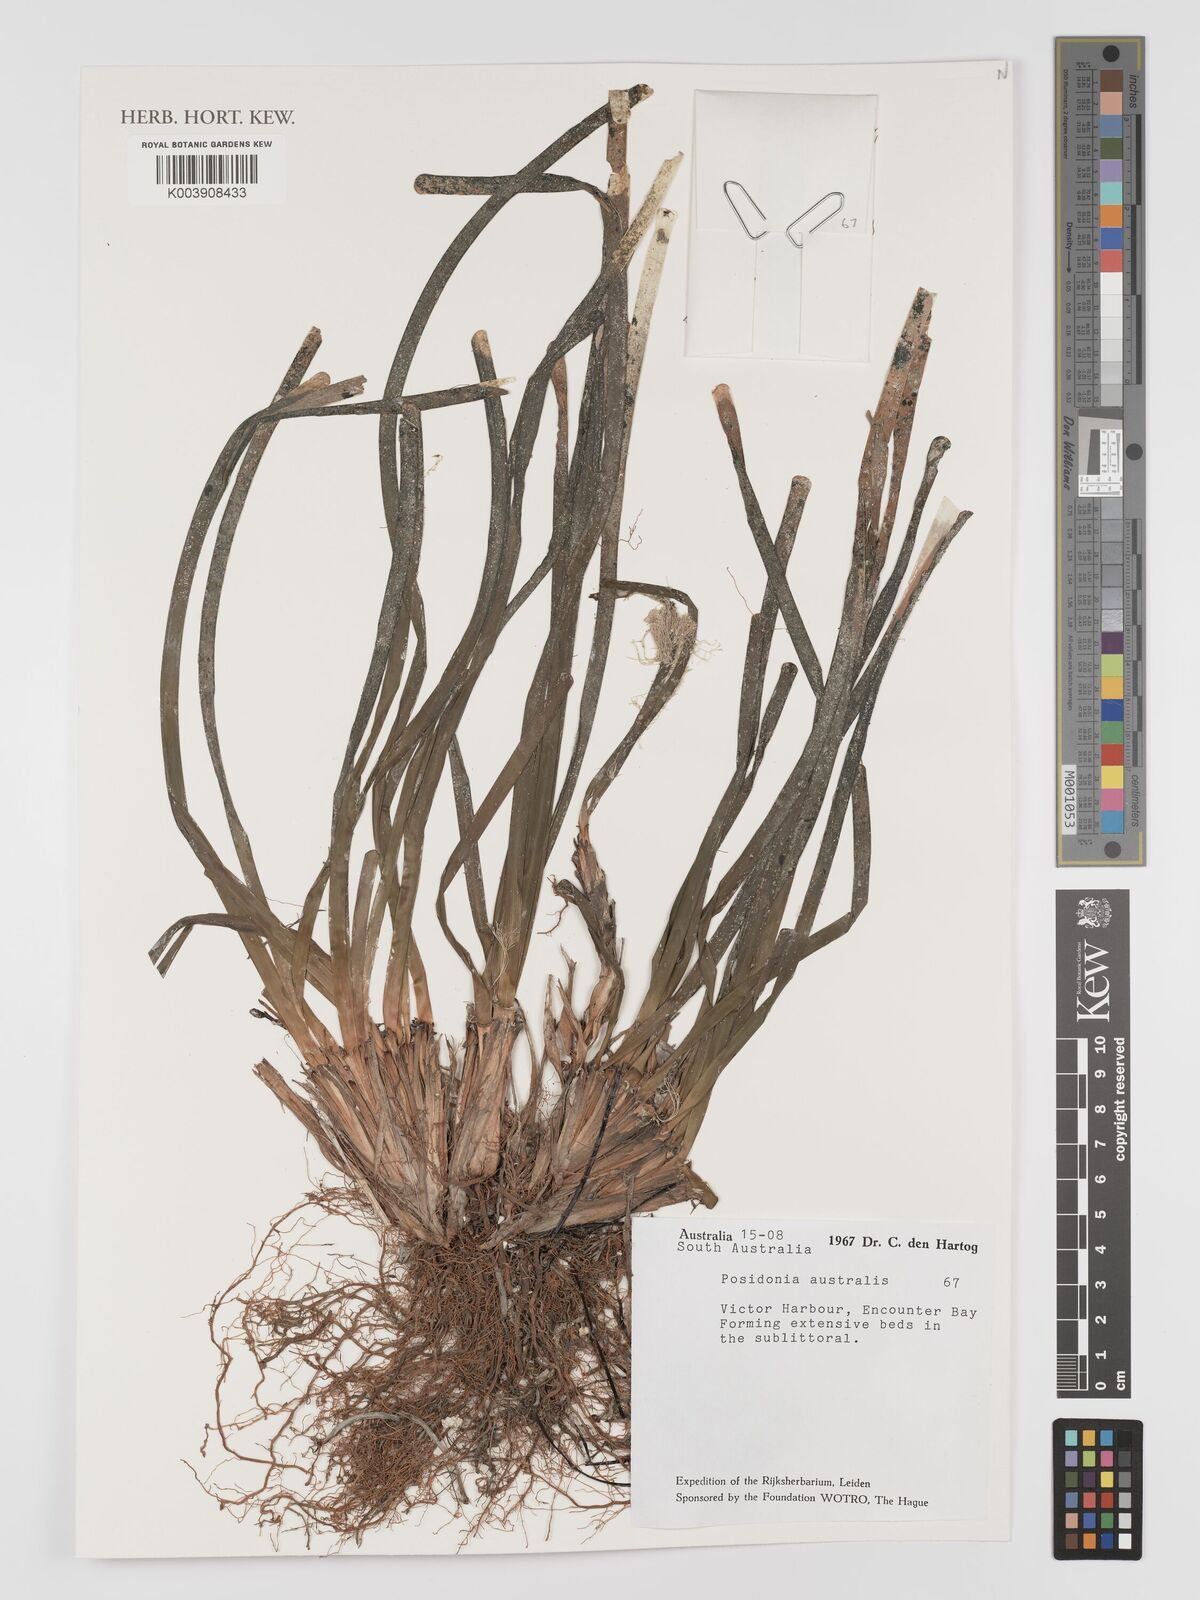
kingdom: Plantae
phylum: Tracheophyta
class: Liliopsida
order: Alismatales
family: Posidoniaceae
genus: Posidonia
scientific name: Posidonia australis
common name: Species code: pa
